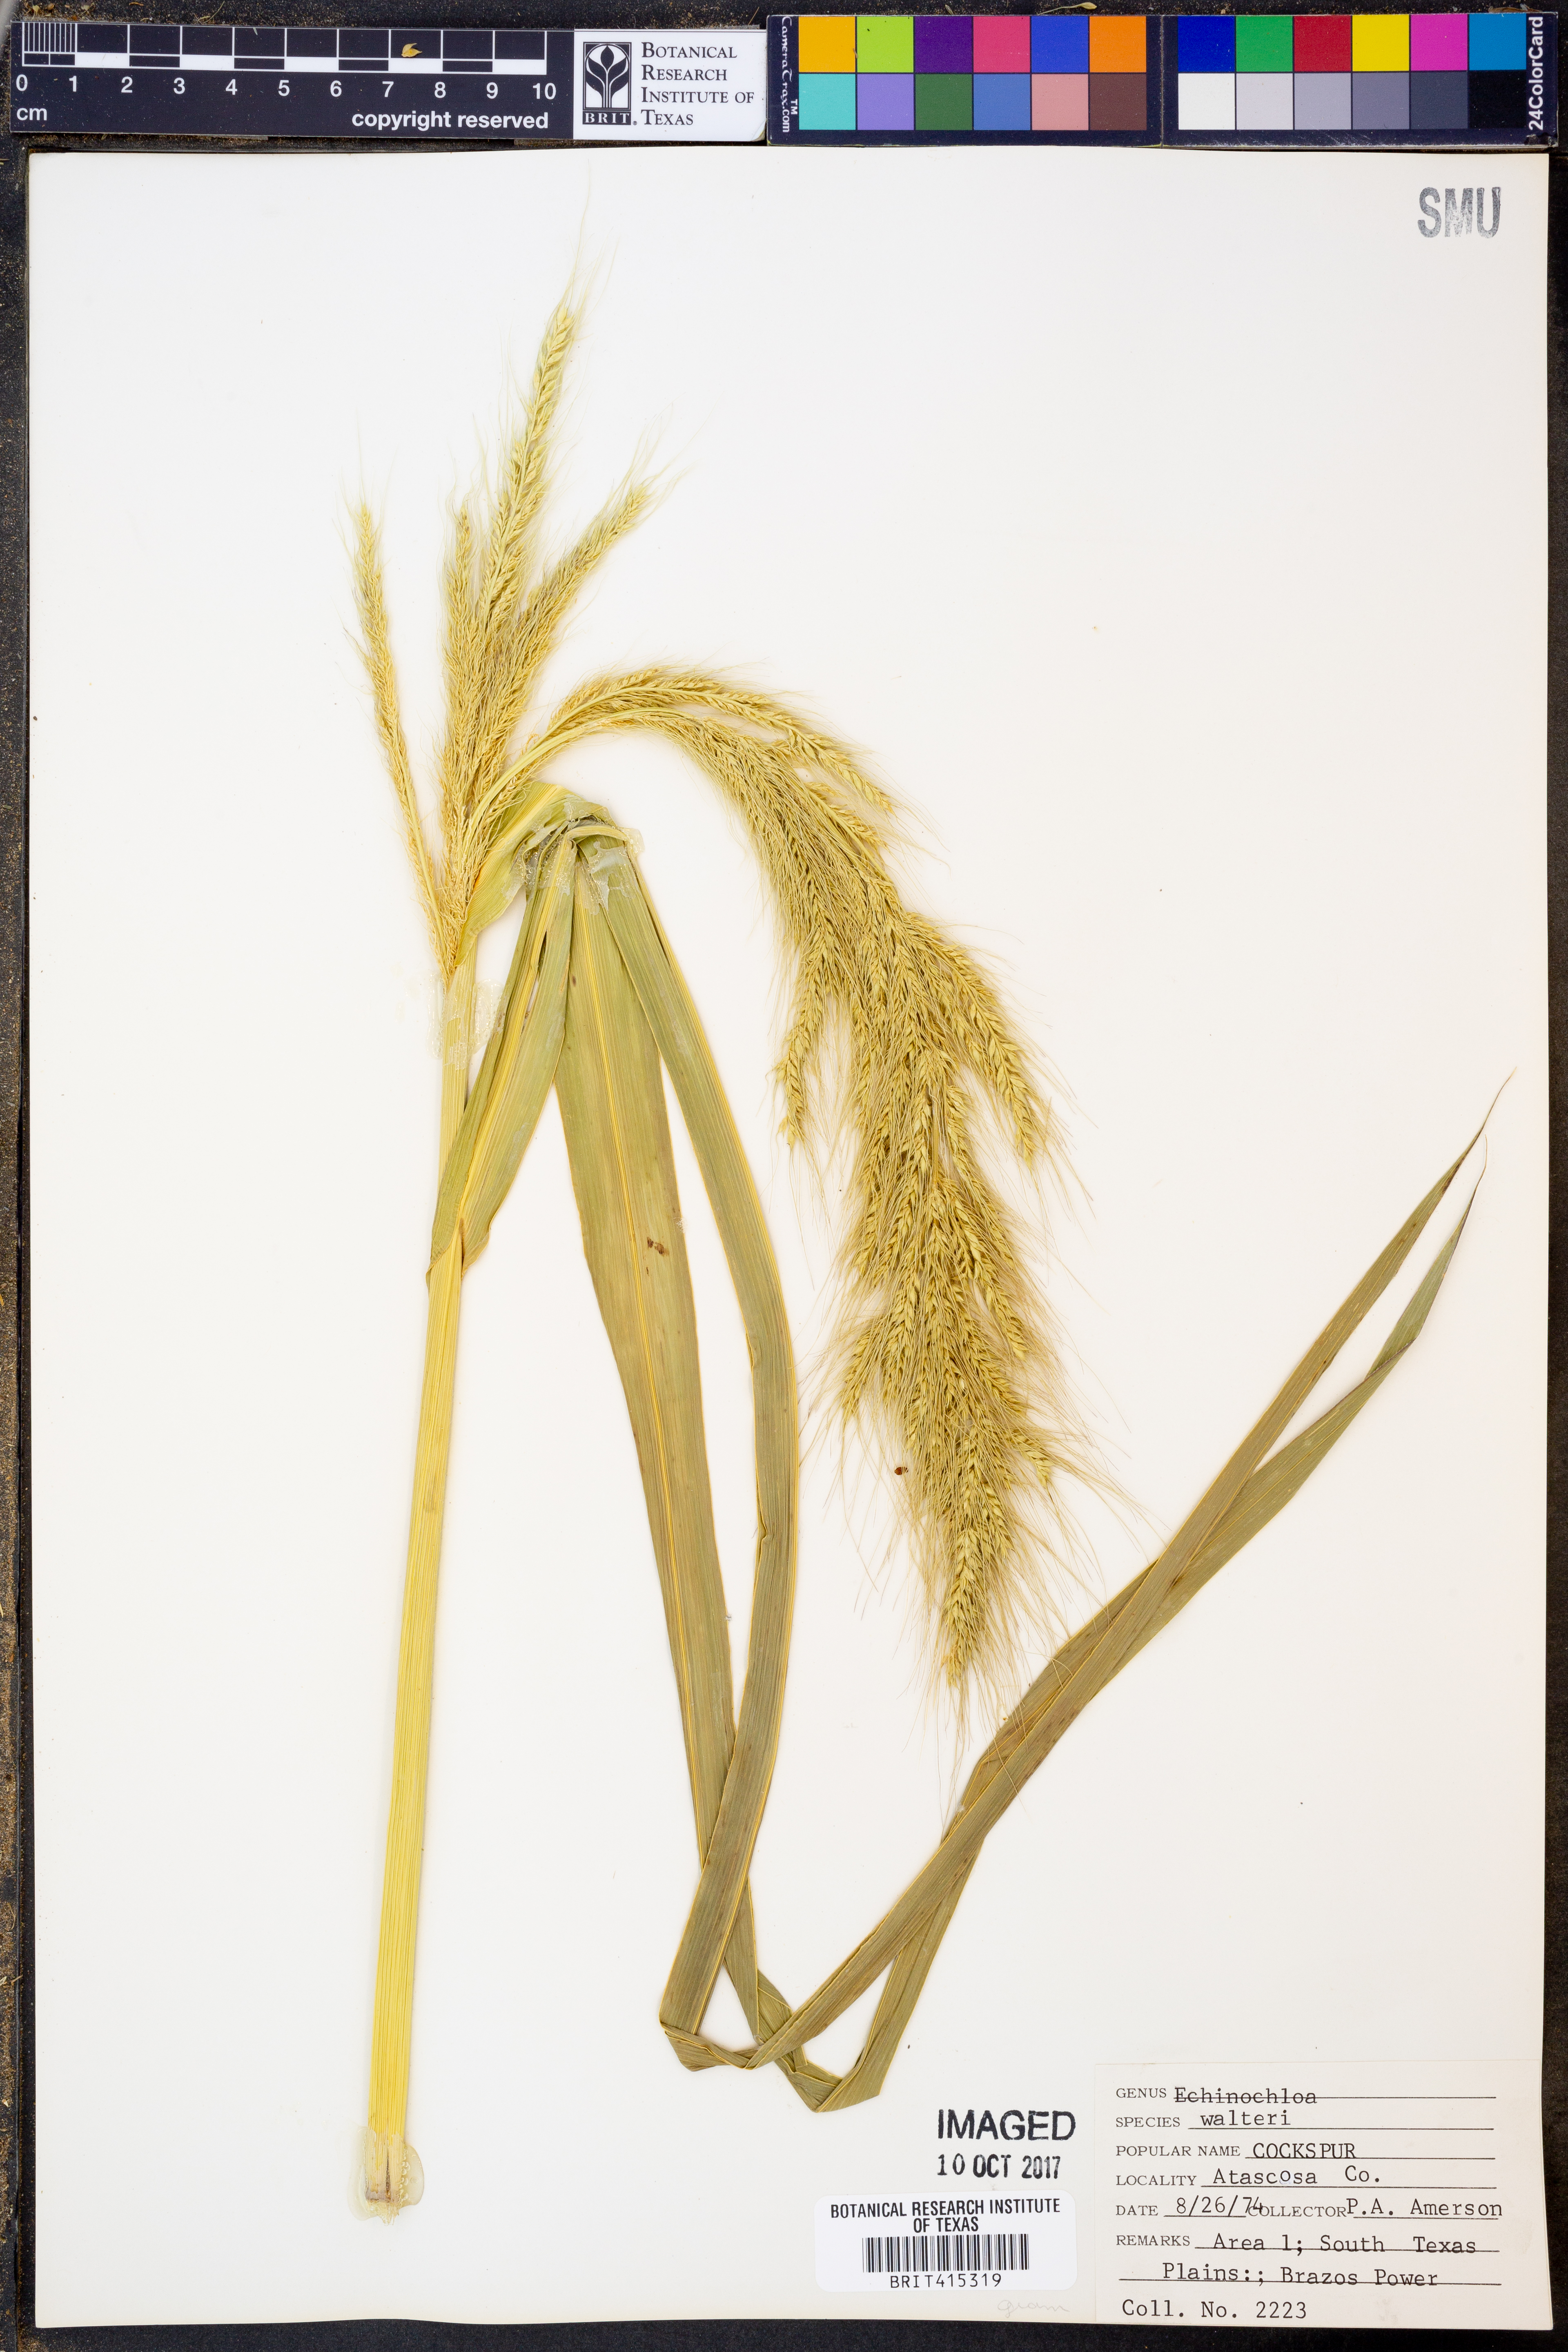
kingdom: Plantae
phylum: Tracheophyta
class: Liliopsida
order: Poales
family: Poaceae
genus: Echinochloa
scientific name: Echinochloa walteri
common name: Coast barnyard grass
